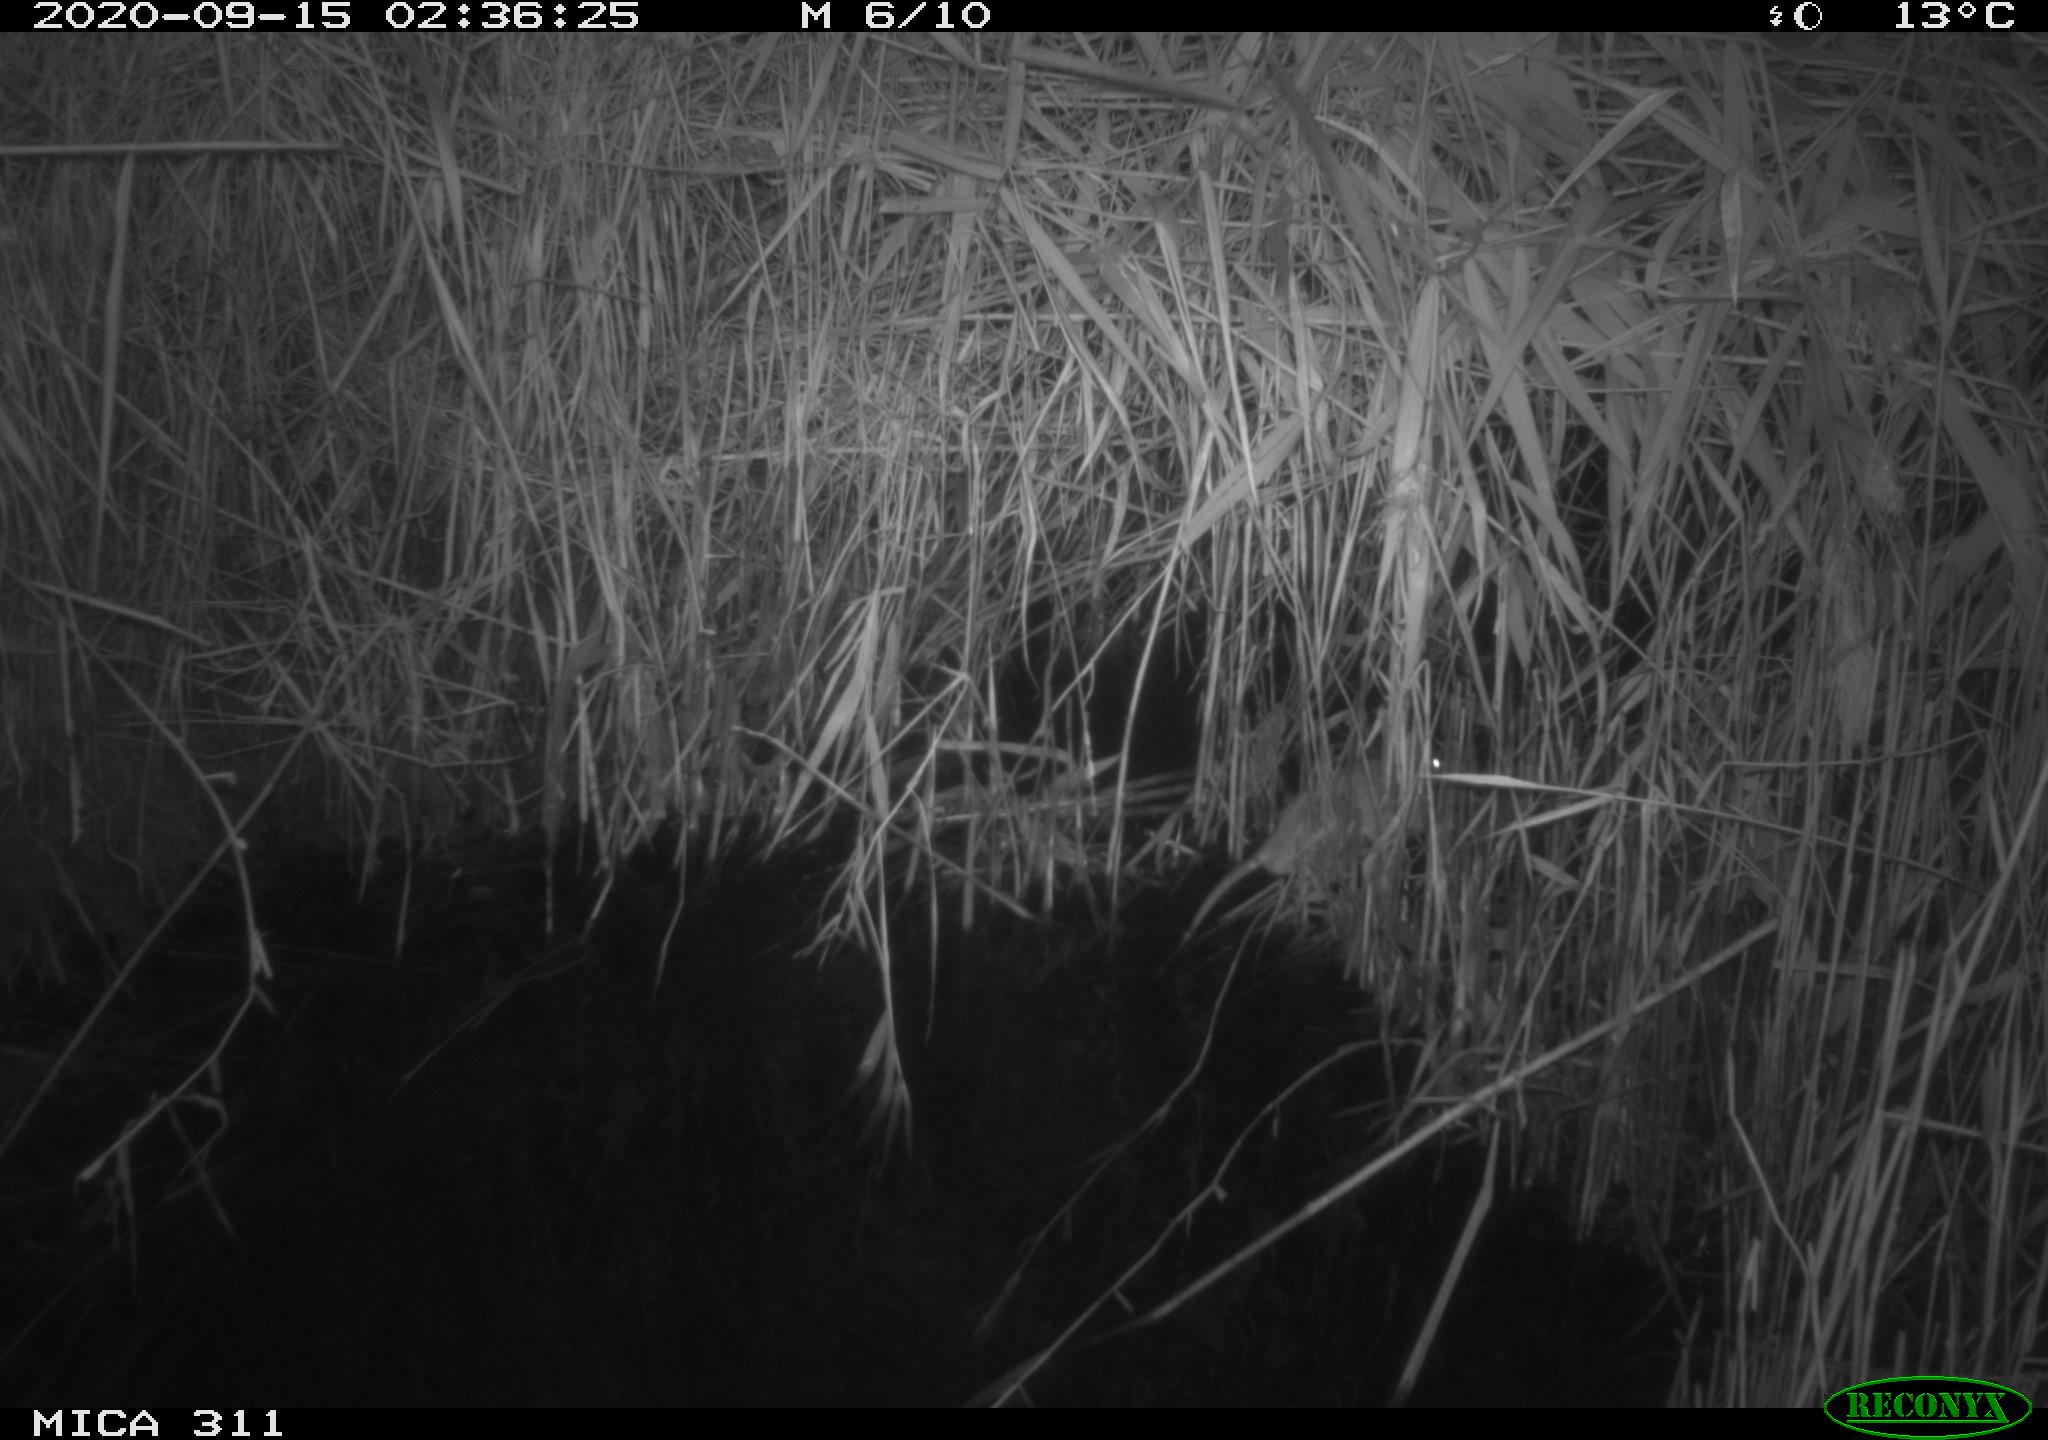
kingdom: Animalia
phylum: Chordata
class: Mammalia
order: Rodentia
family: Muridae
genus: Rattus
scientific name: Rattus norvegicus
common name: Brown rat
